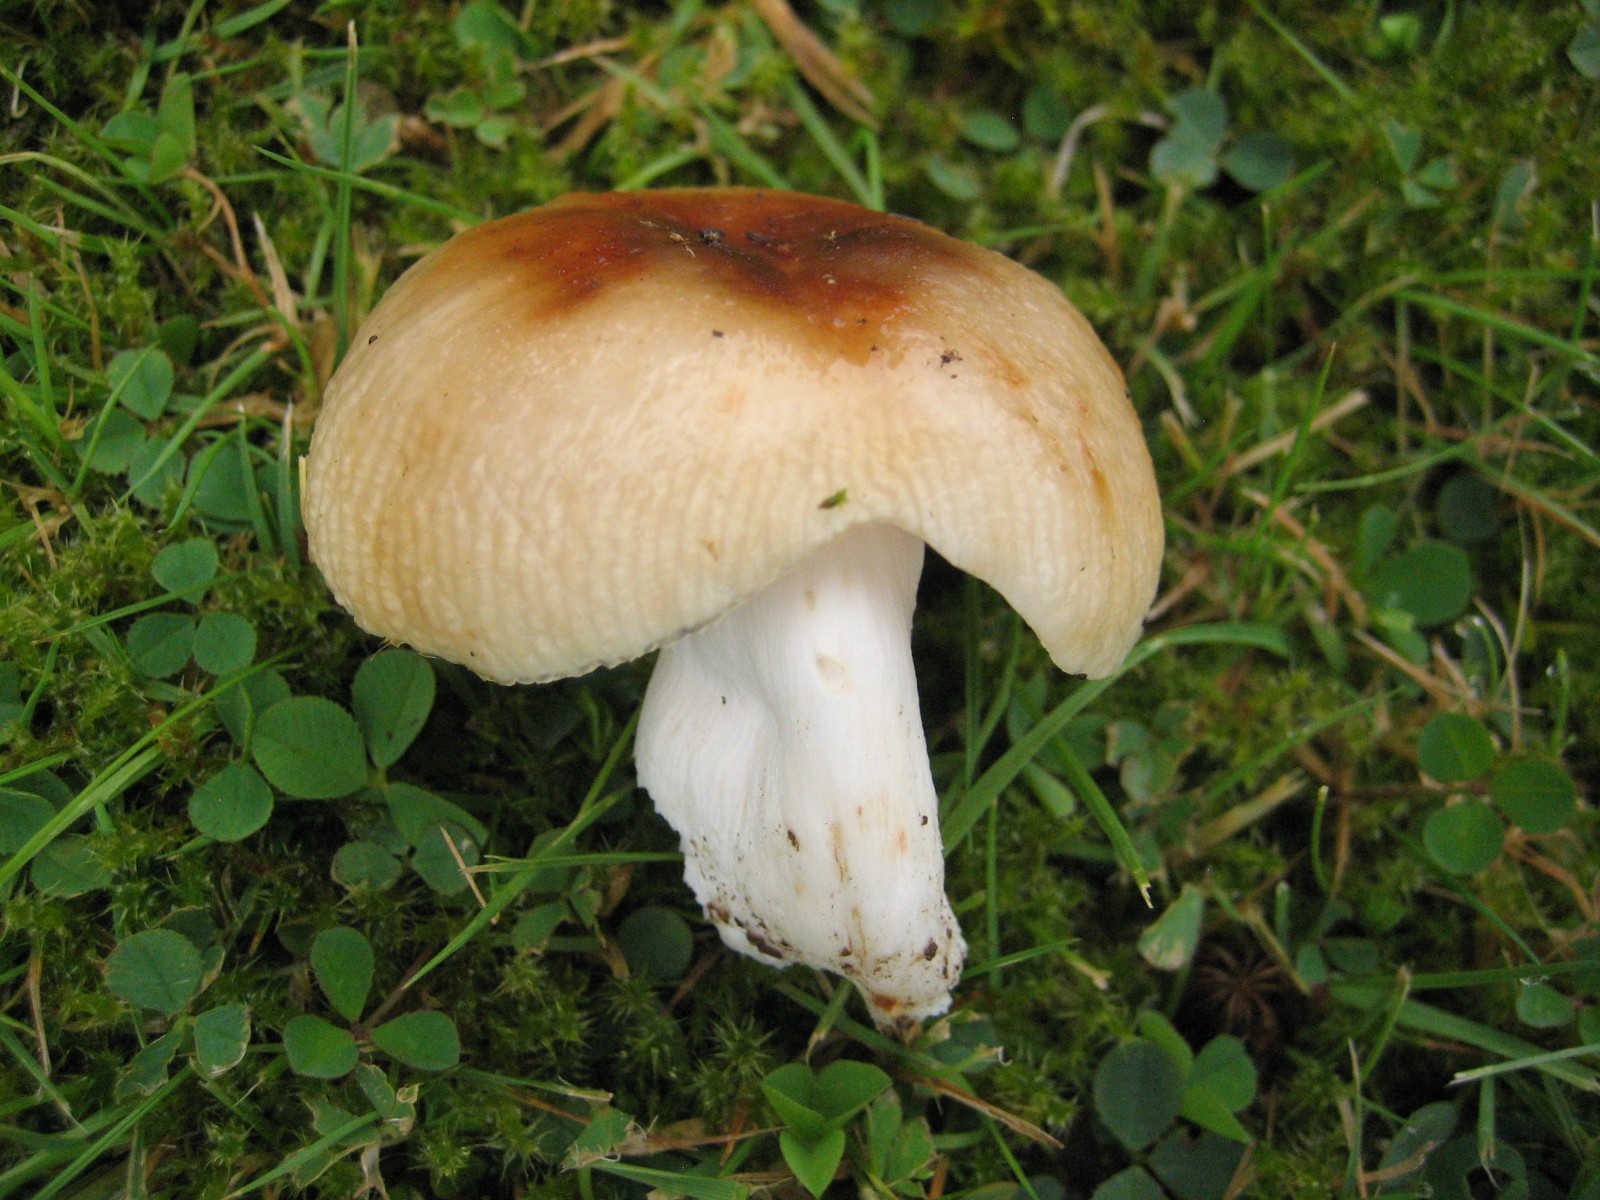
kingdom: Fungi
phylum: Basidiomycota
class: Agaricomycetes
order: Russulales
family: Russulaceae
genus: Russula
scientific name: Russula recondita
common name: mild kam-skørhat
